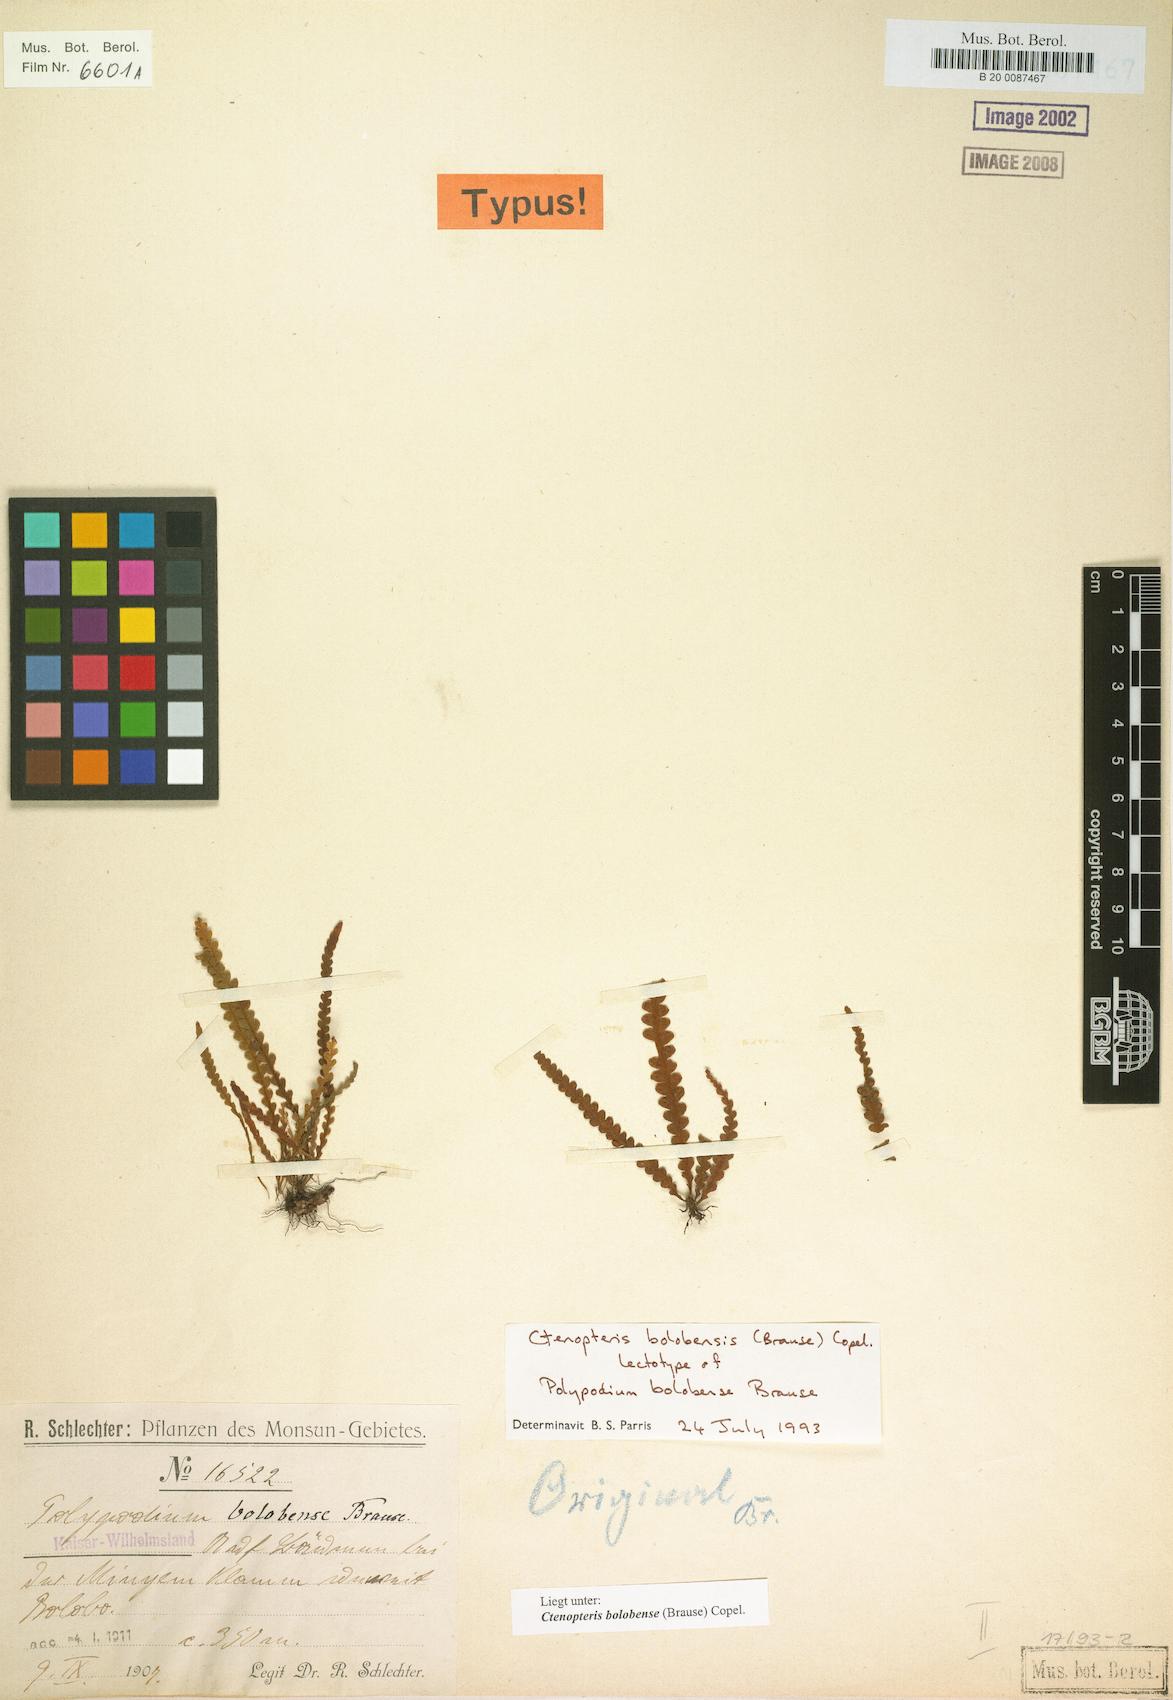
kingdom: Plantae
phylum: Tracheophyta
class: Polypodiopsida
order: Polypodiales
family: Polypodiaceae
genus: Prosaptia
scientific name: Prosaptia bolobensis
